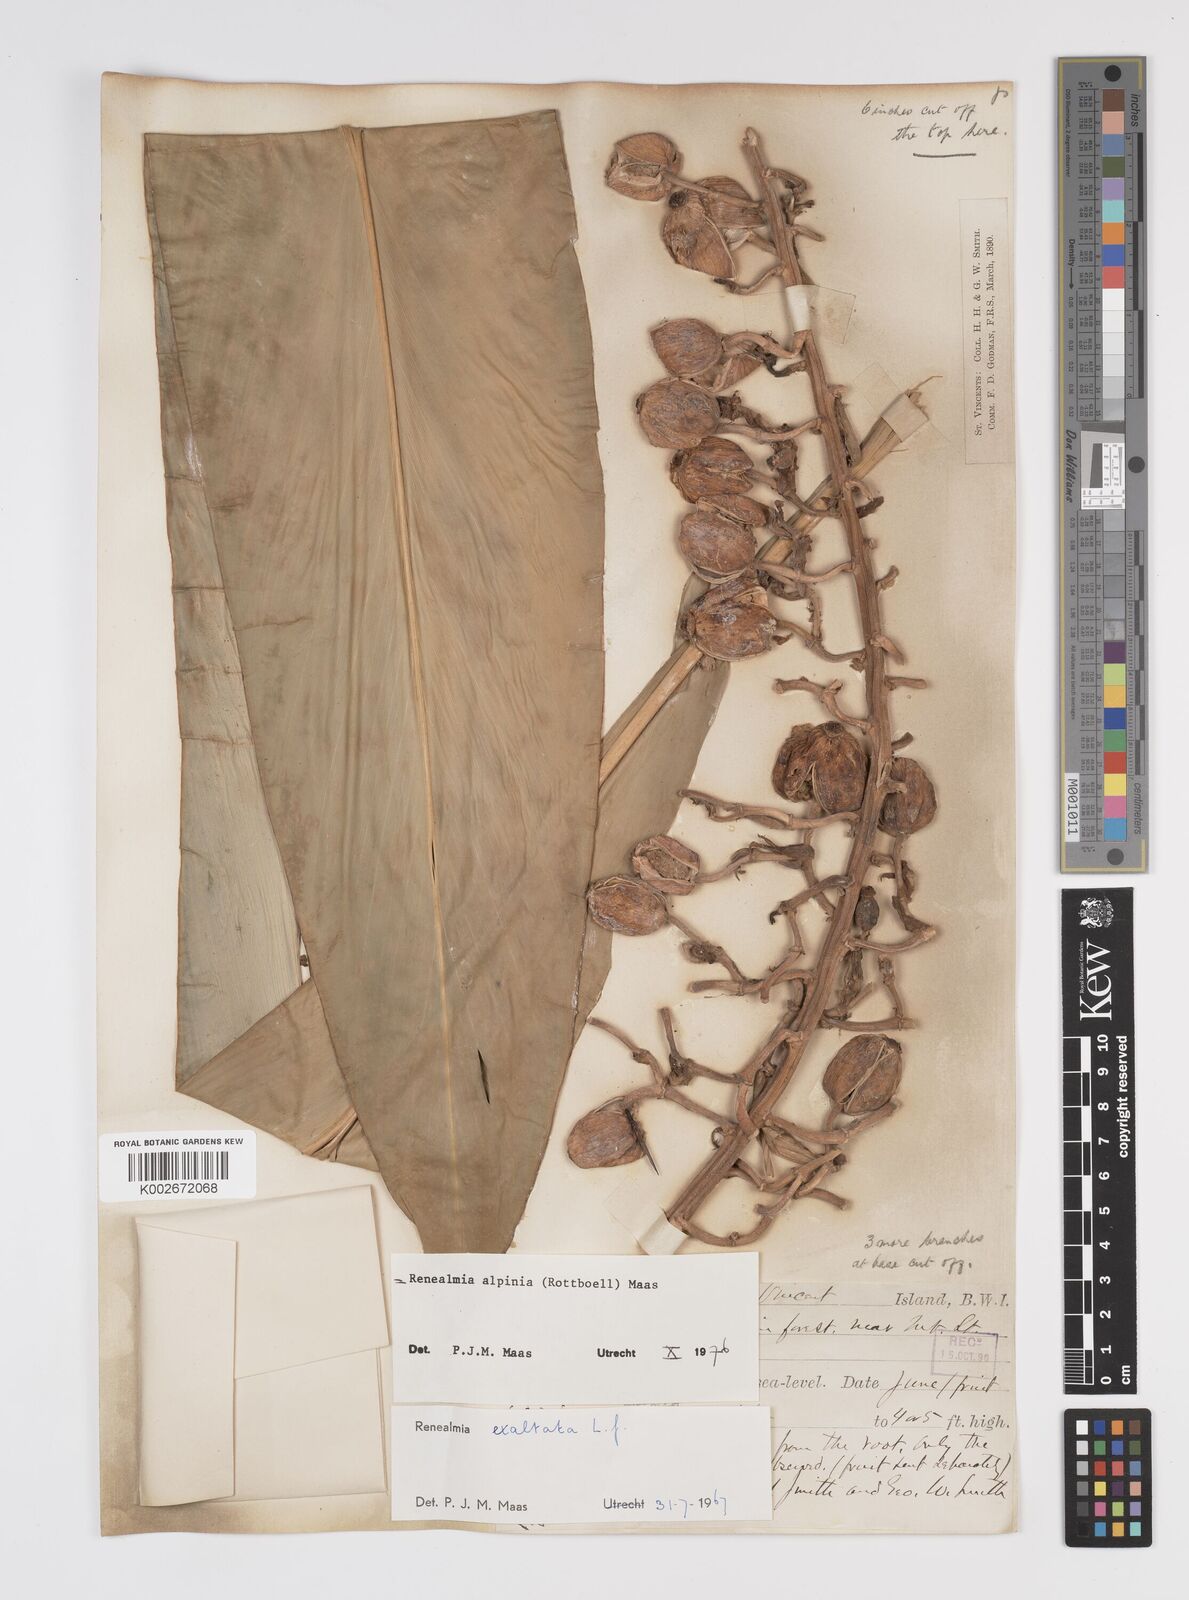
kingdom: Plantae
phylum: Tracheophyta
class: Liliopsida
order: Zingiberales
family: Zingiberaceae
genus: Renealmia
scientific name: Renealmia alpinia
